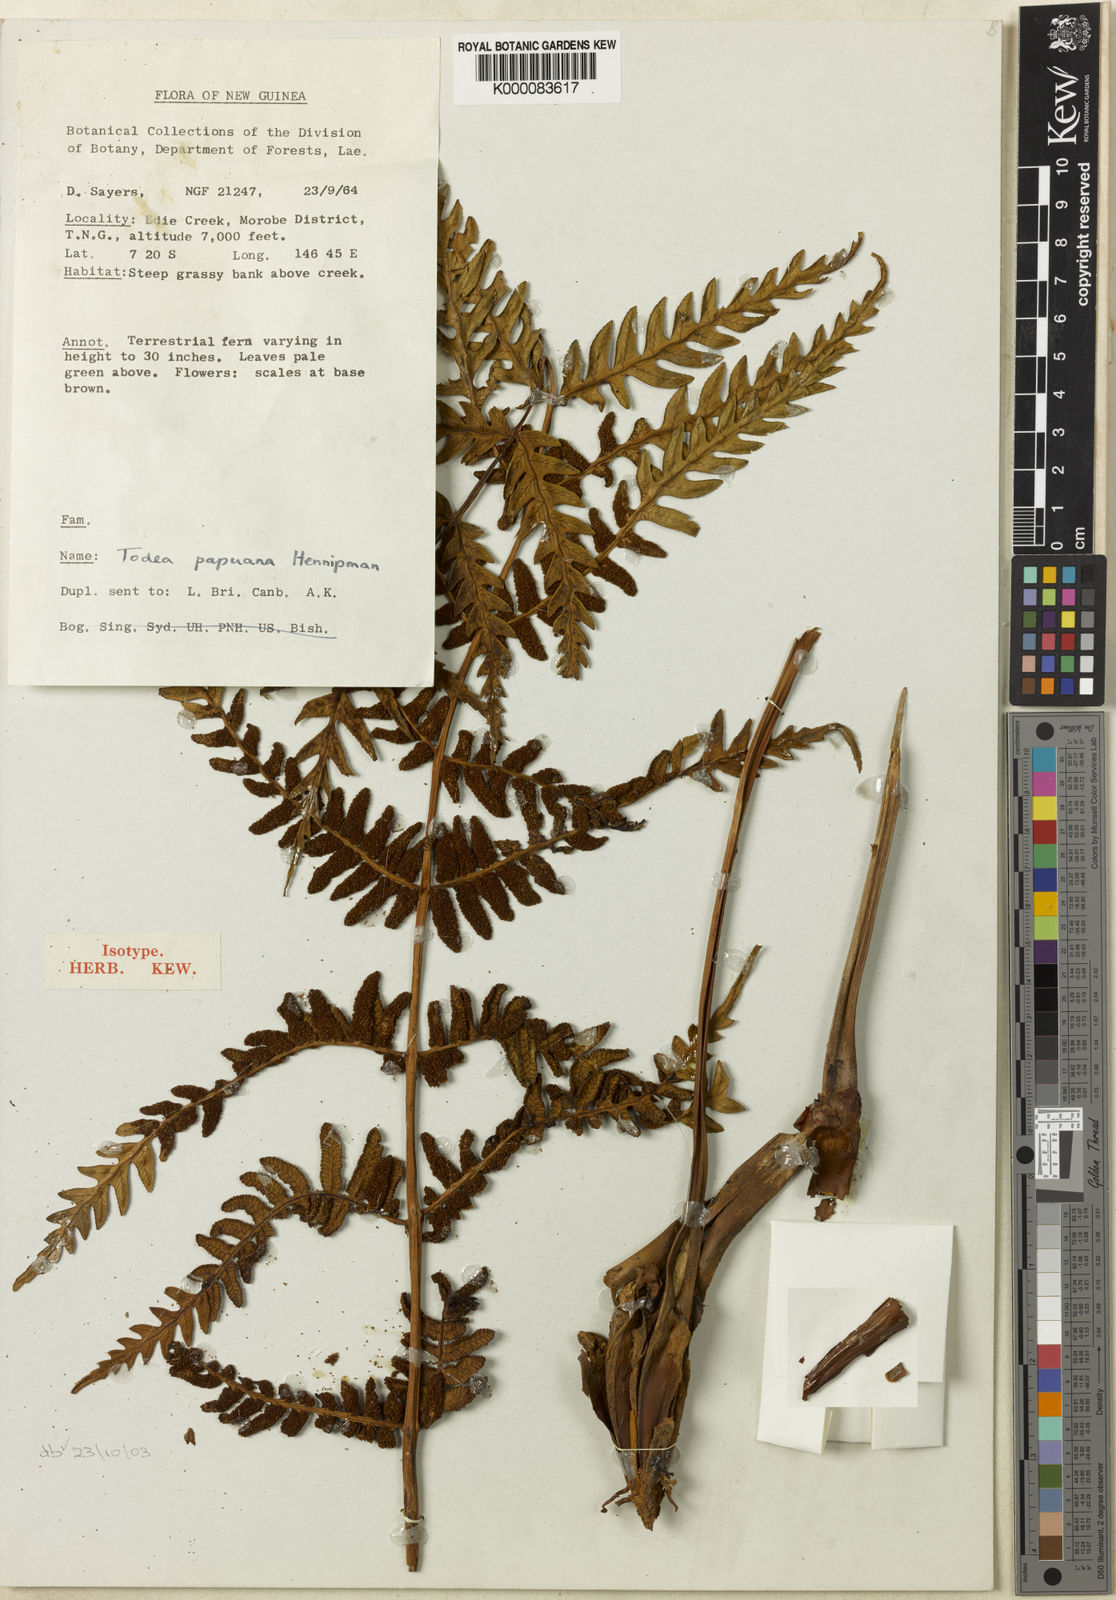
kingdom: Plantae
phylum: Tracheophyta
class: Polypodiopsida
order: Osmundales
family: Osmundaceae
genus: Todea
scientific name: Todea papuana
